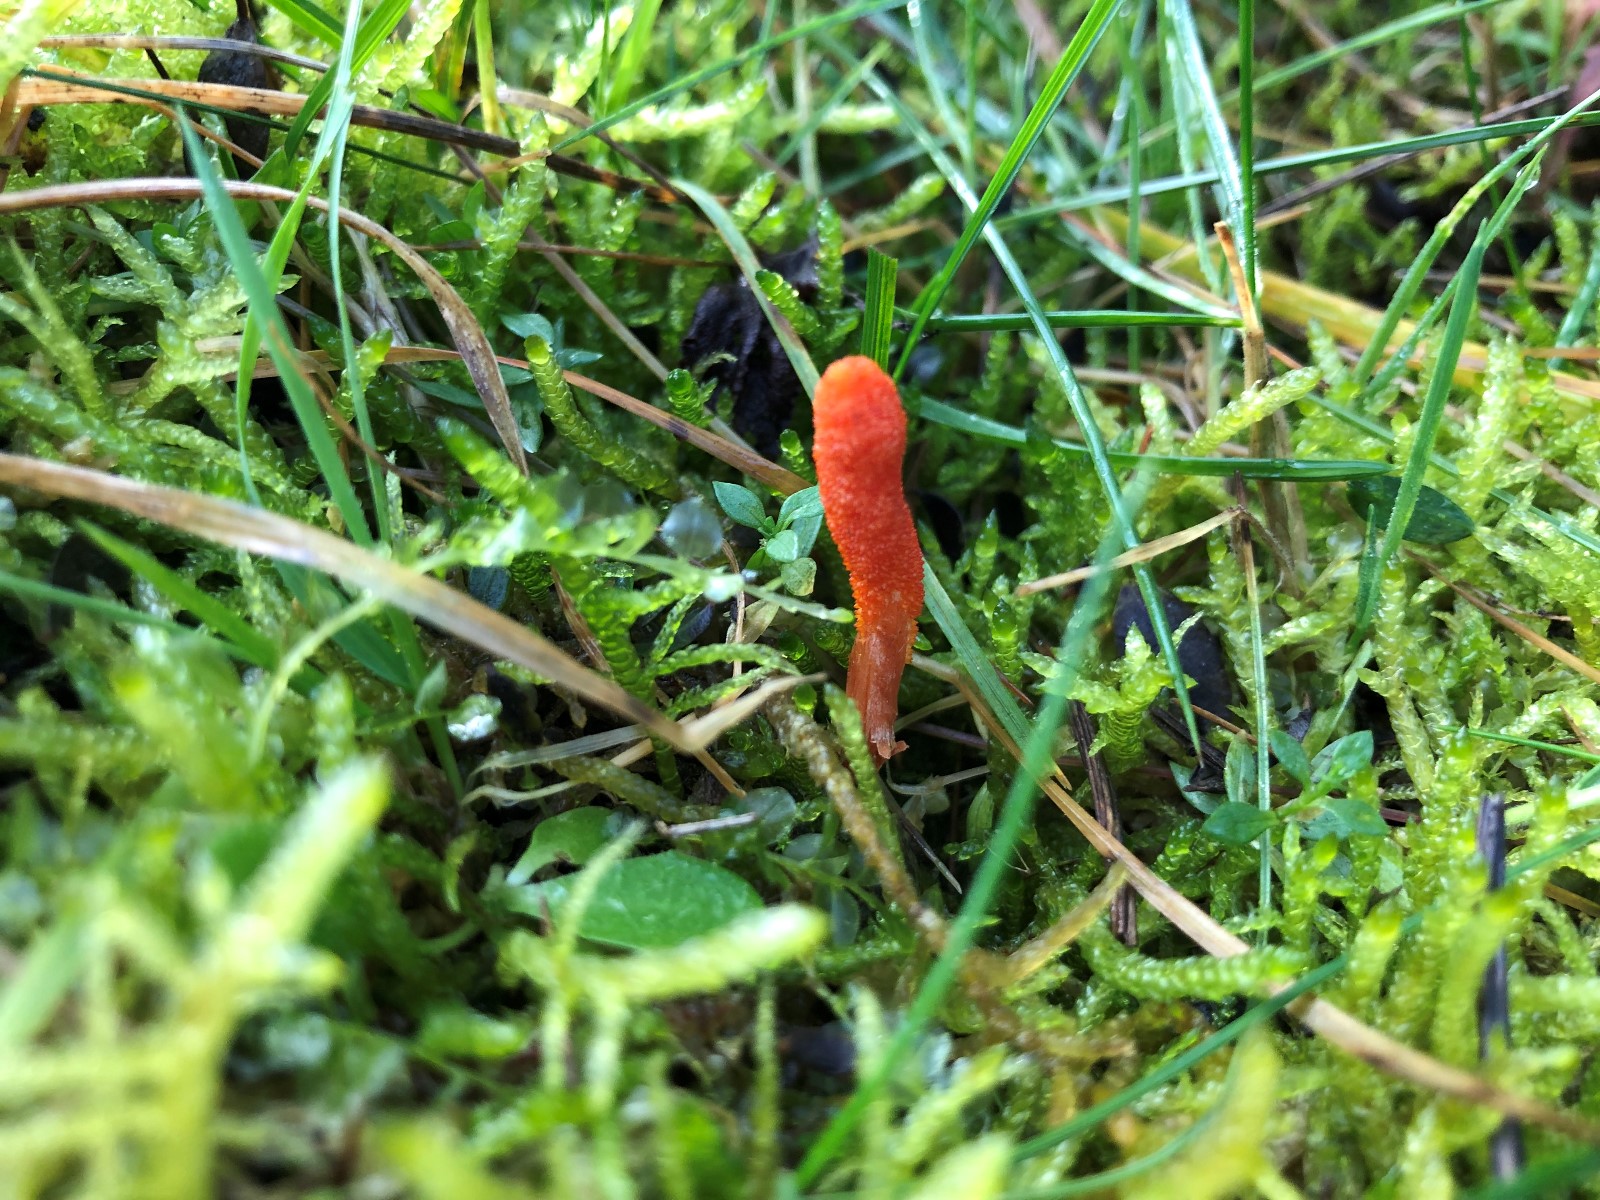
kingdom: Fungi
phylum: Ascomycota
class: Sordariomycetes
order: Hypocreales
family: Cordycipitaceae
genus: Cordyceps
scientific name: Cordyceps militaris
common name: puppe-snyltekølle
